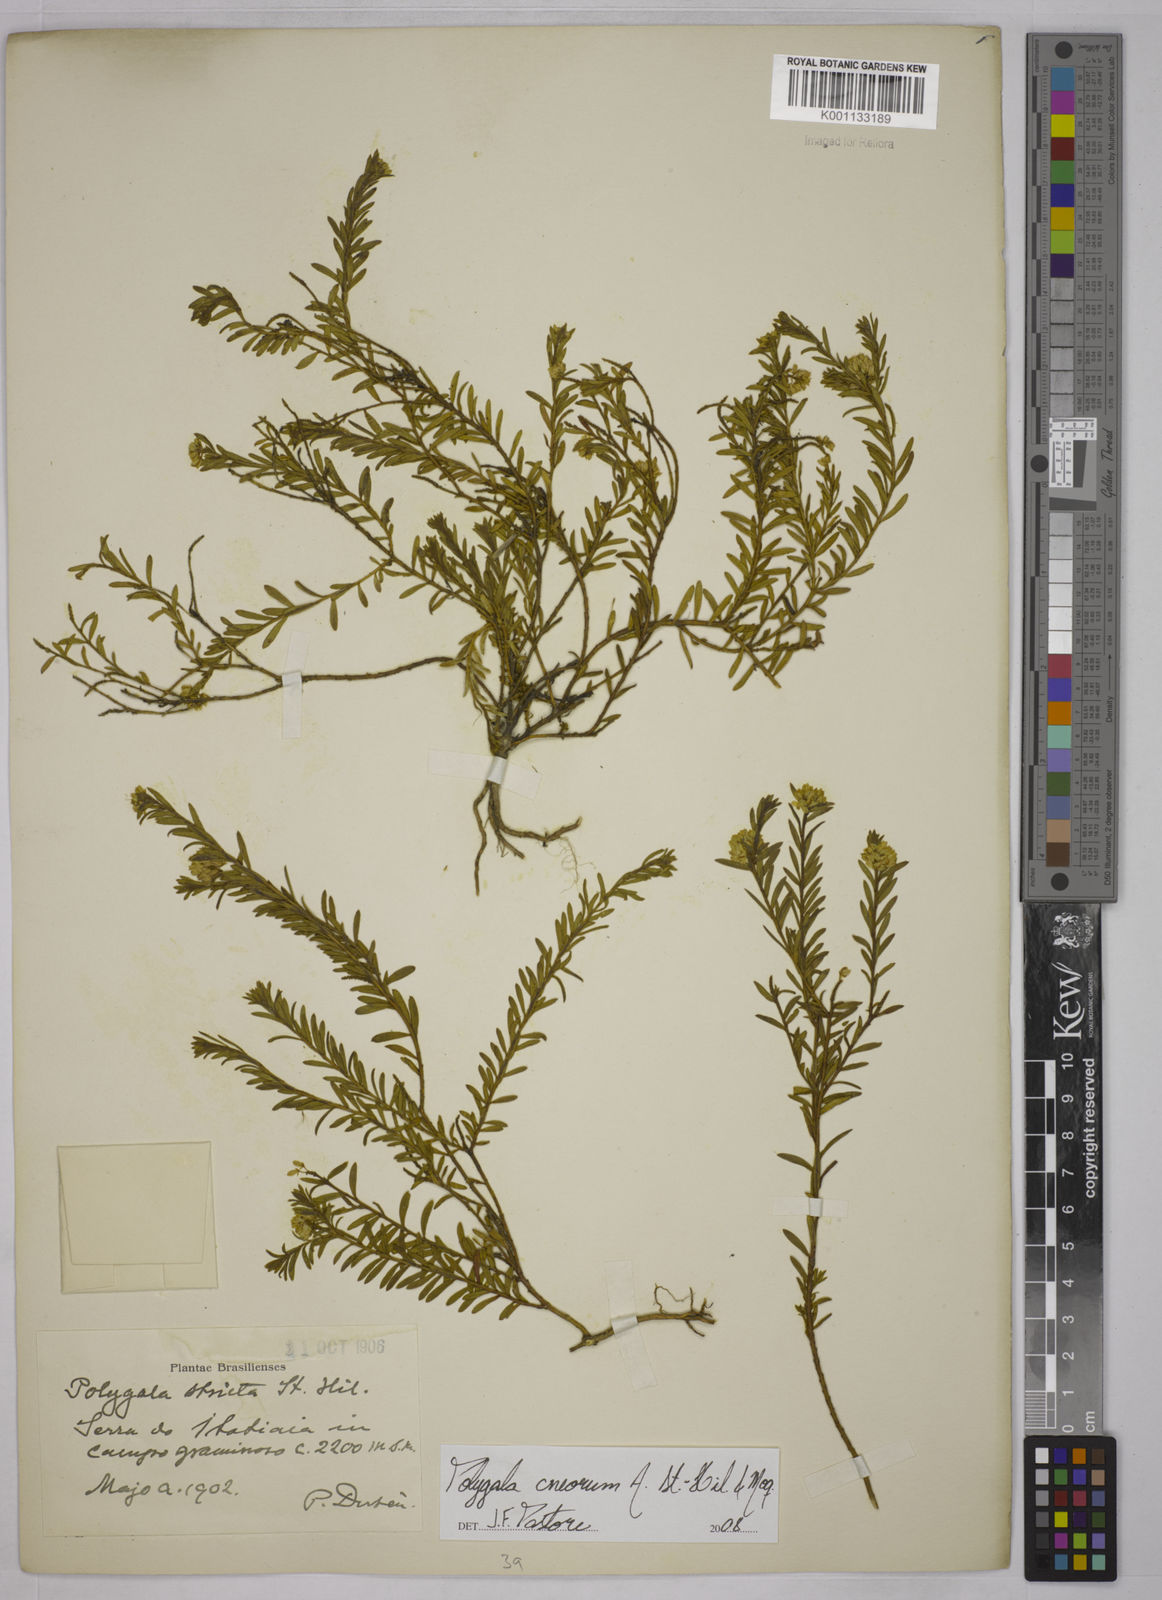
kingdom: Plantae
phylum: Tracheophyta
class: Magnoliopsida
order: Fabales
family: Polygalaceae
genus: Polygala
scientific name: Polygala cneorum
